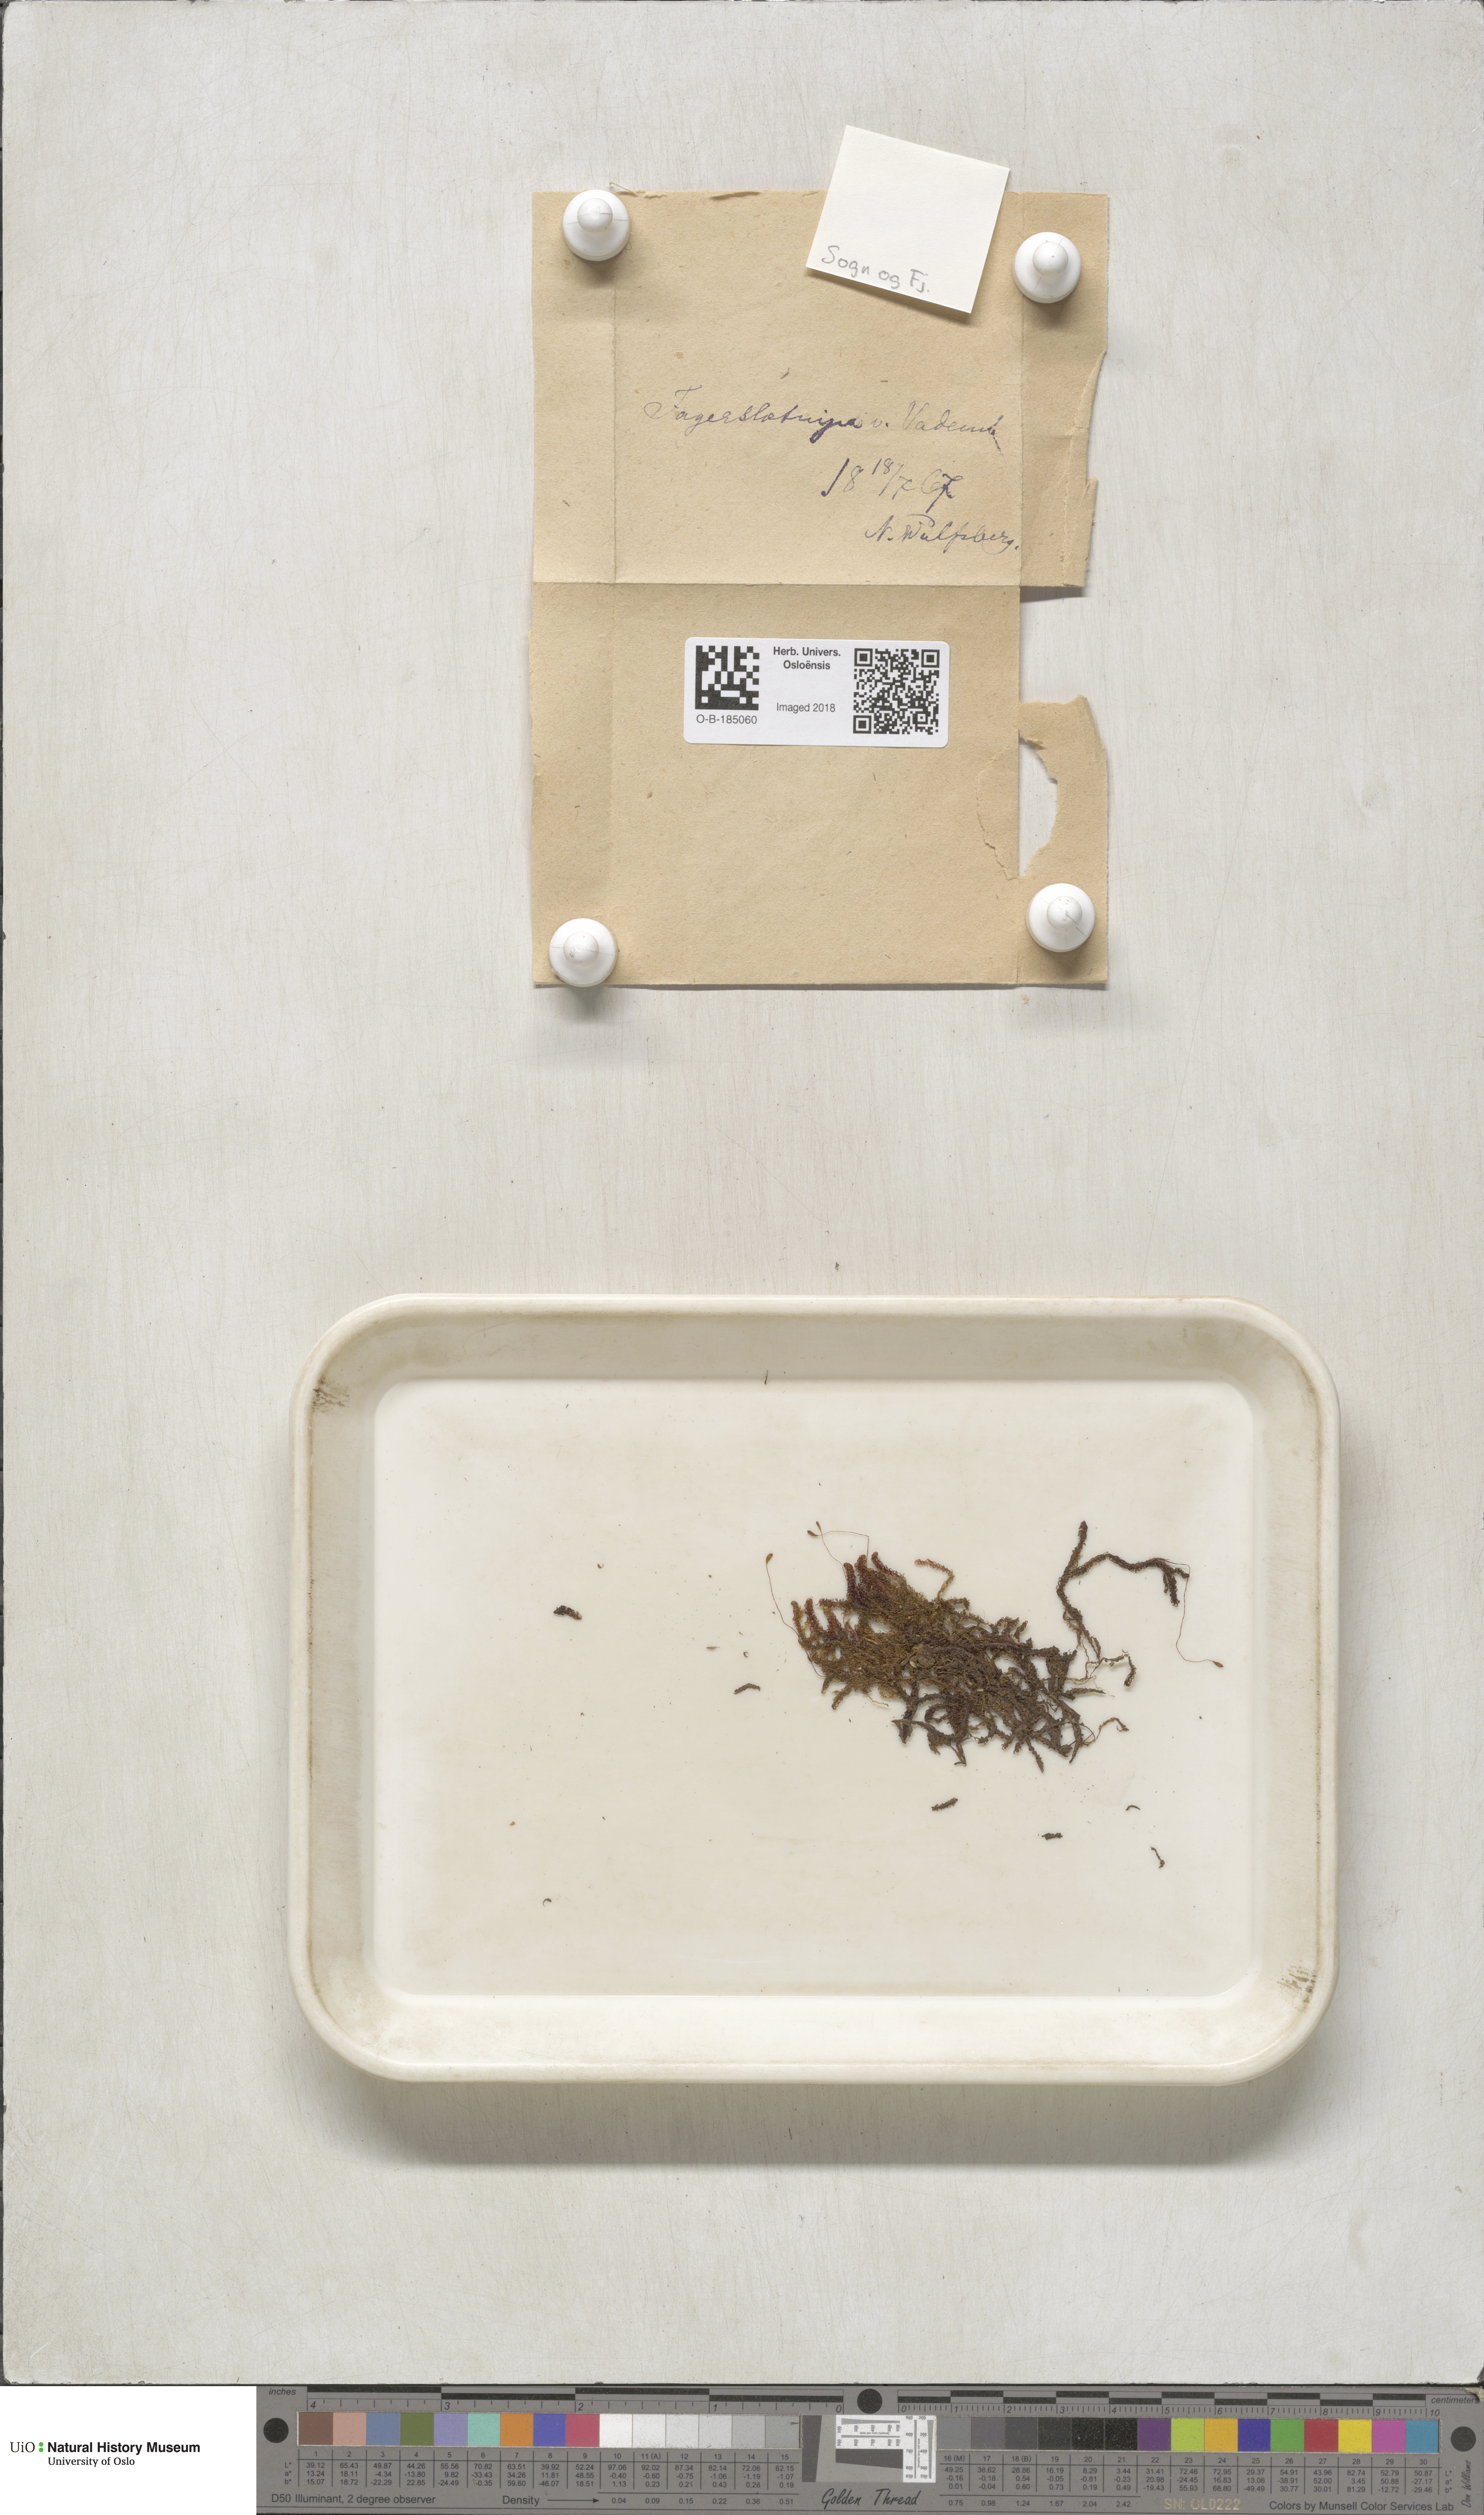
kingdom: Plantae
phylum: Bryophyta
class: Bryopsida
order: Hypnales
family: Scorpidiaceae
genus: Scorpidium
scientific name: Scorpidium revolvens
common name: Rusty hook moss
